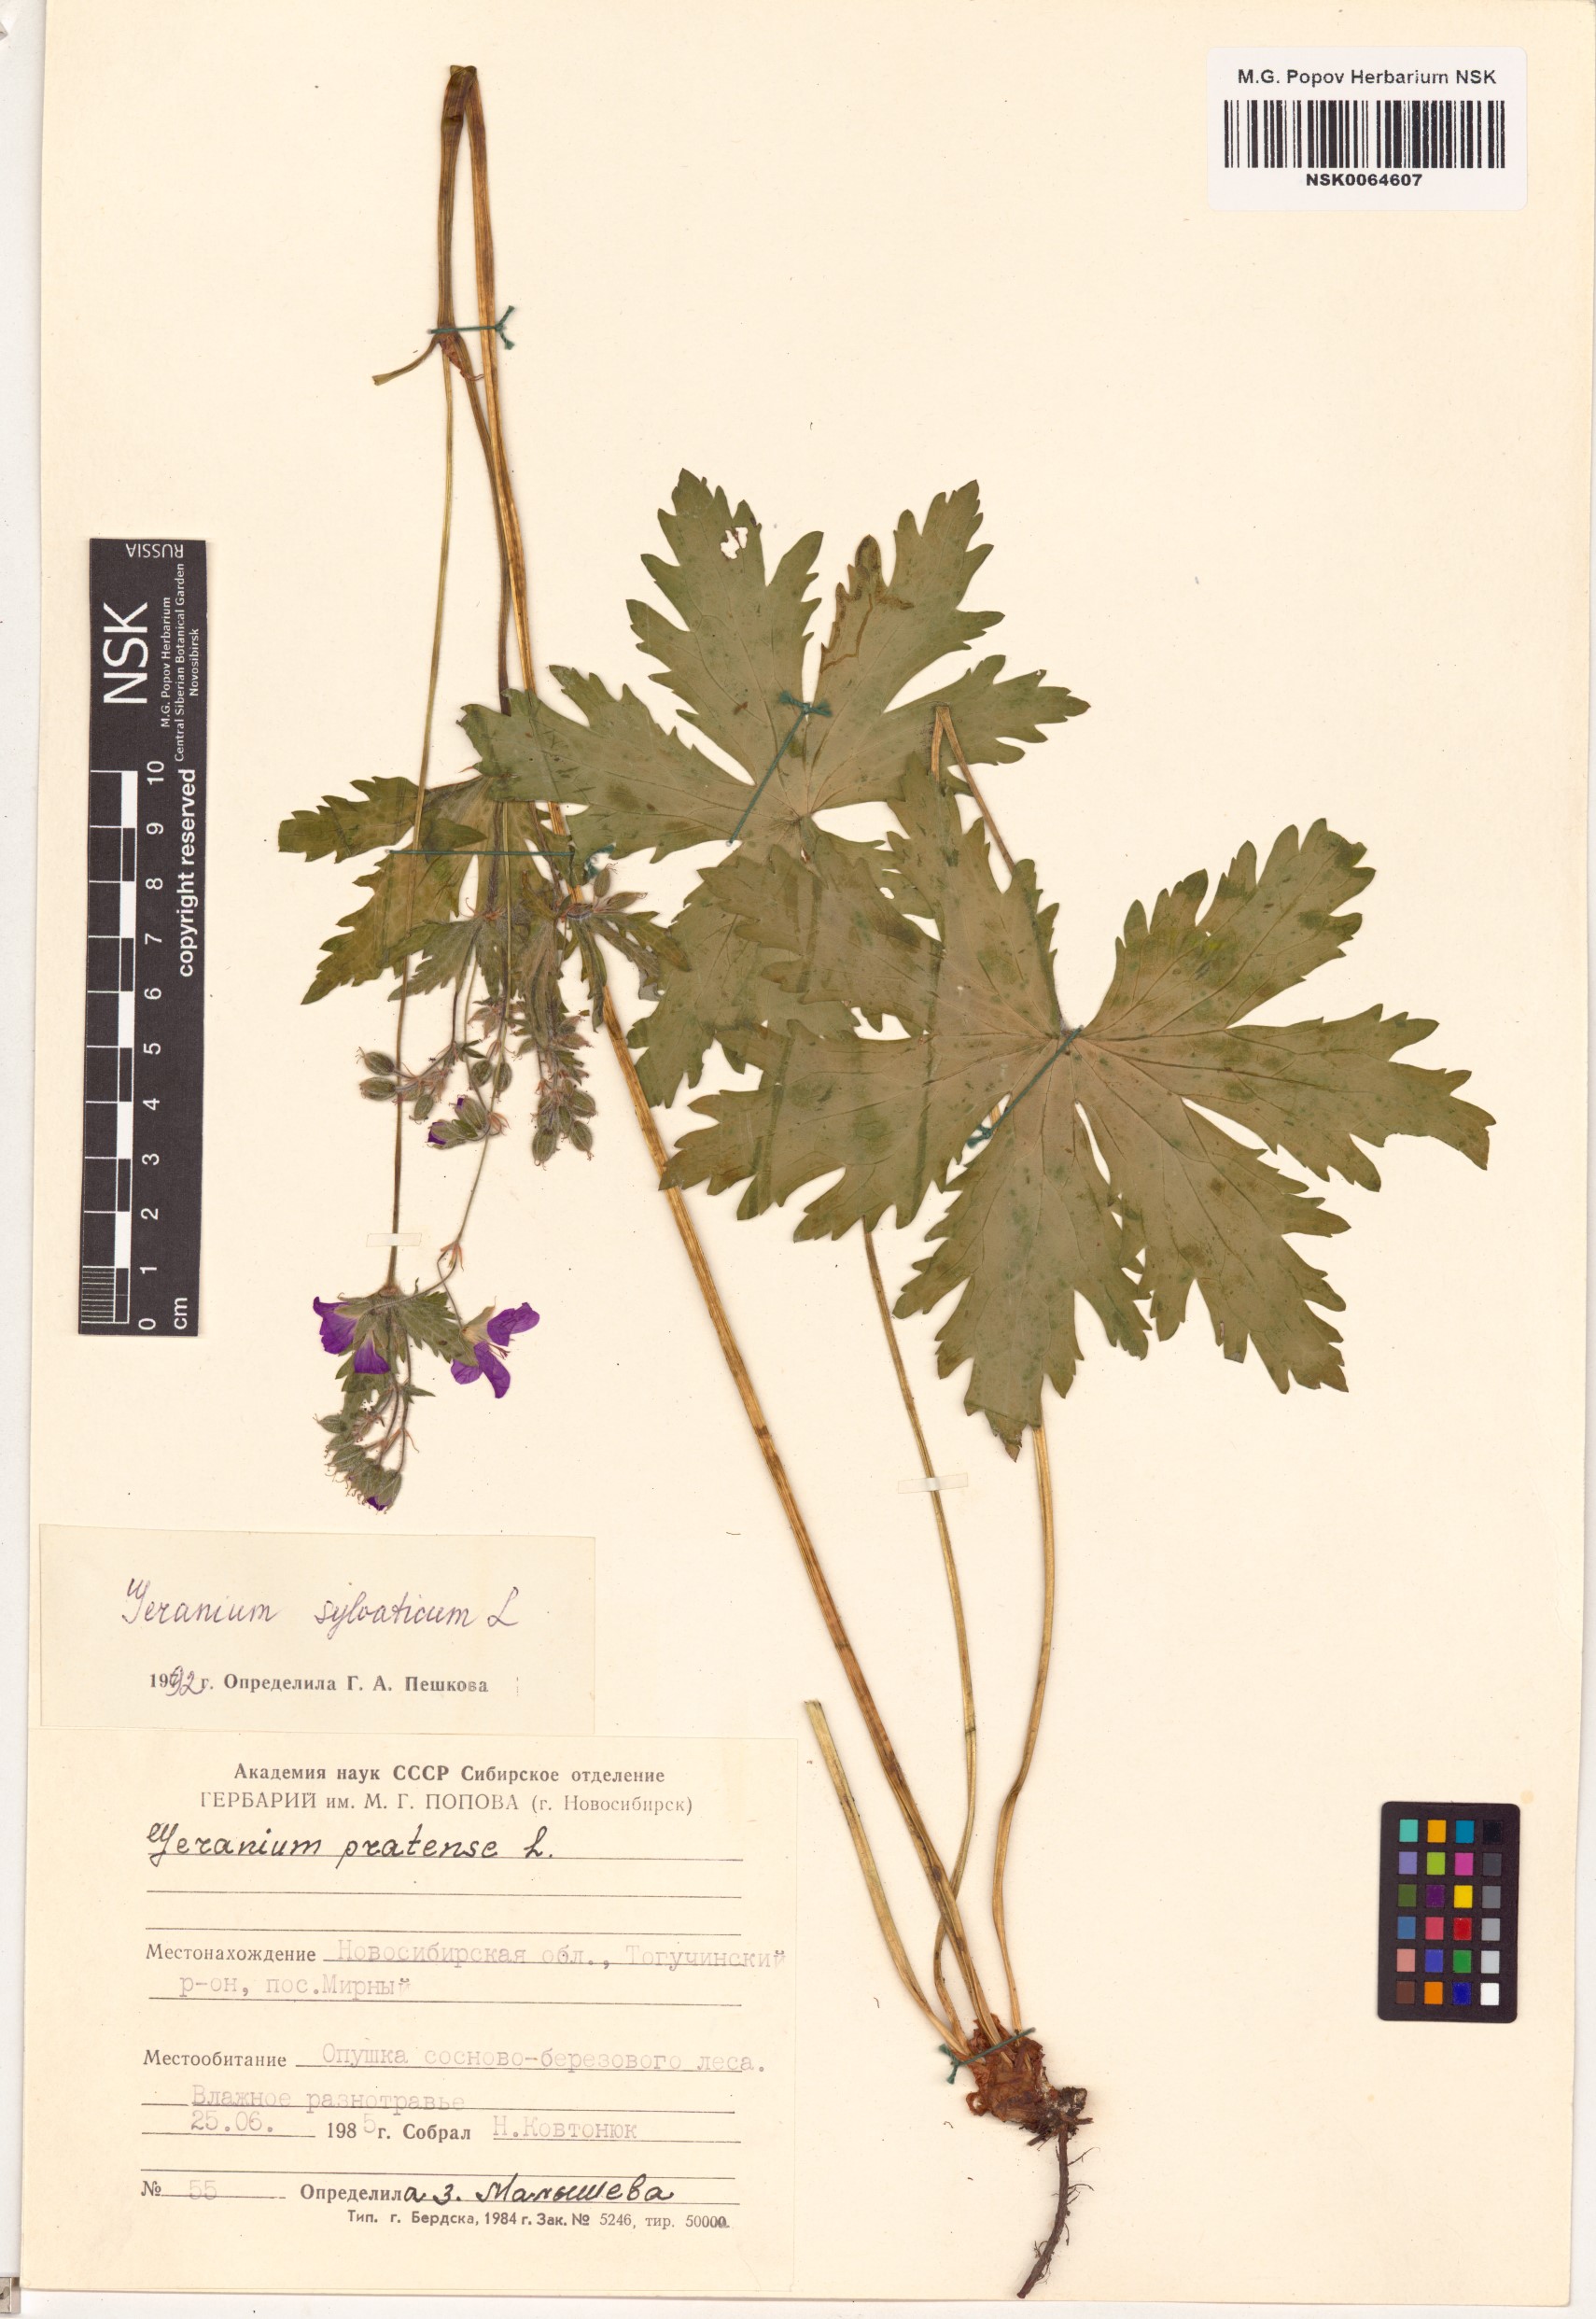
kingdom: Plantae
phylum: Tracheophyta
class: Magnoliopsida
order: Geraniales
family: Geraniaceae
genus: Geranium
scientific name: Geranium sylvaticum
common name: Wood crane's-bill
